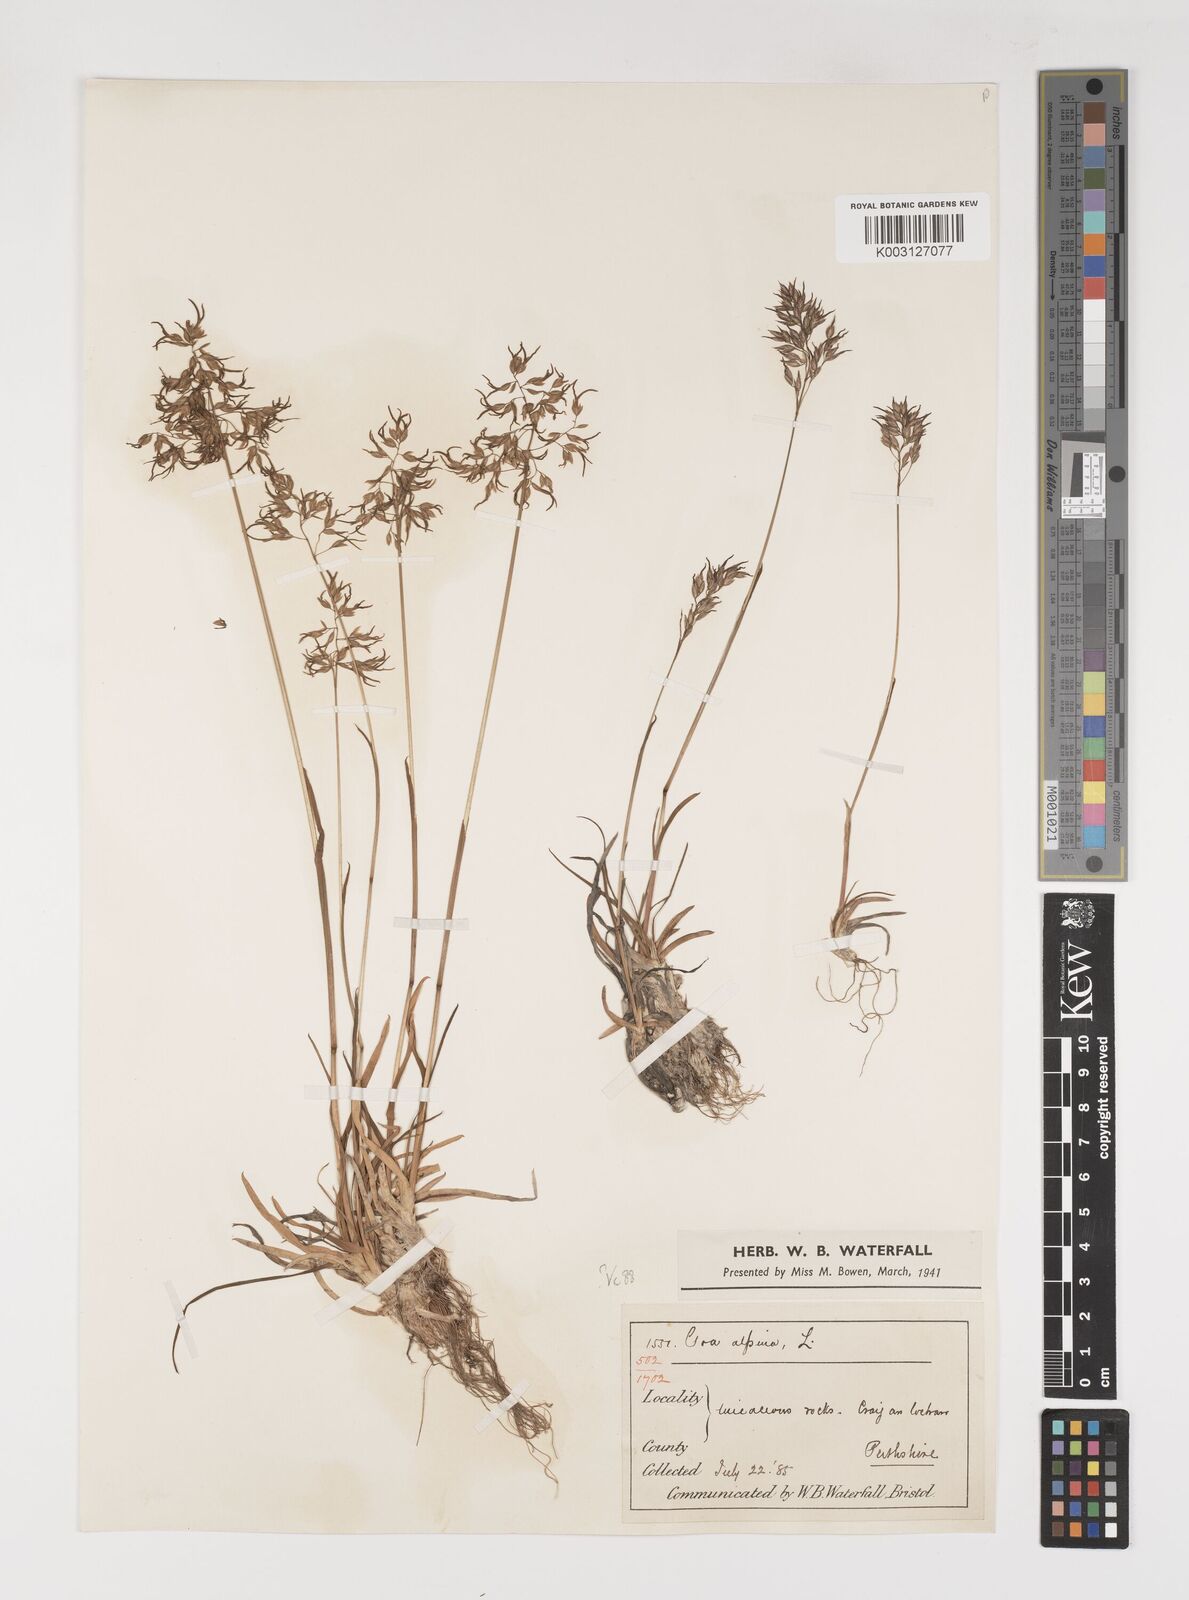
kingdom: Plantae
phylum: Tracheophyta
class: Liliopsida
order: Poales
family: Poaceae
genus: Poa
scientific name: Poa alpina
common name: Alpine bluegrass
